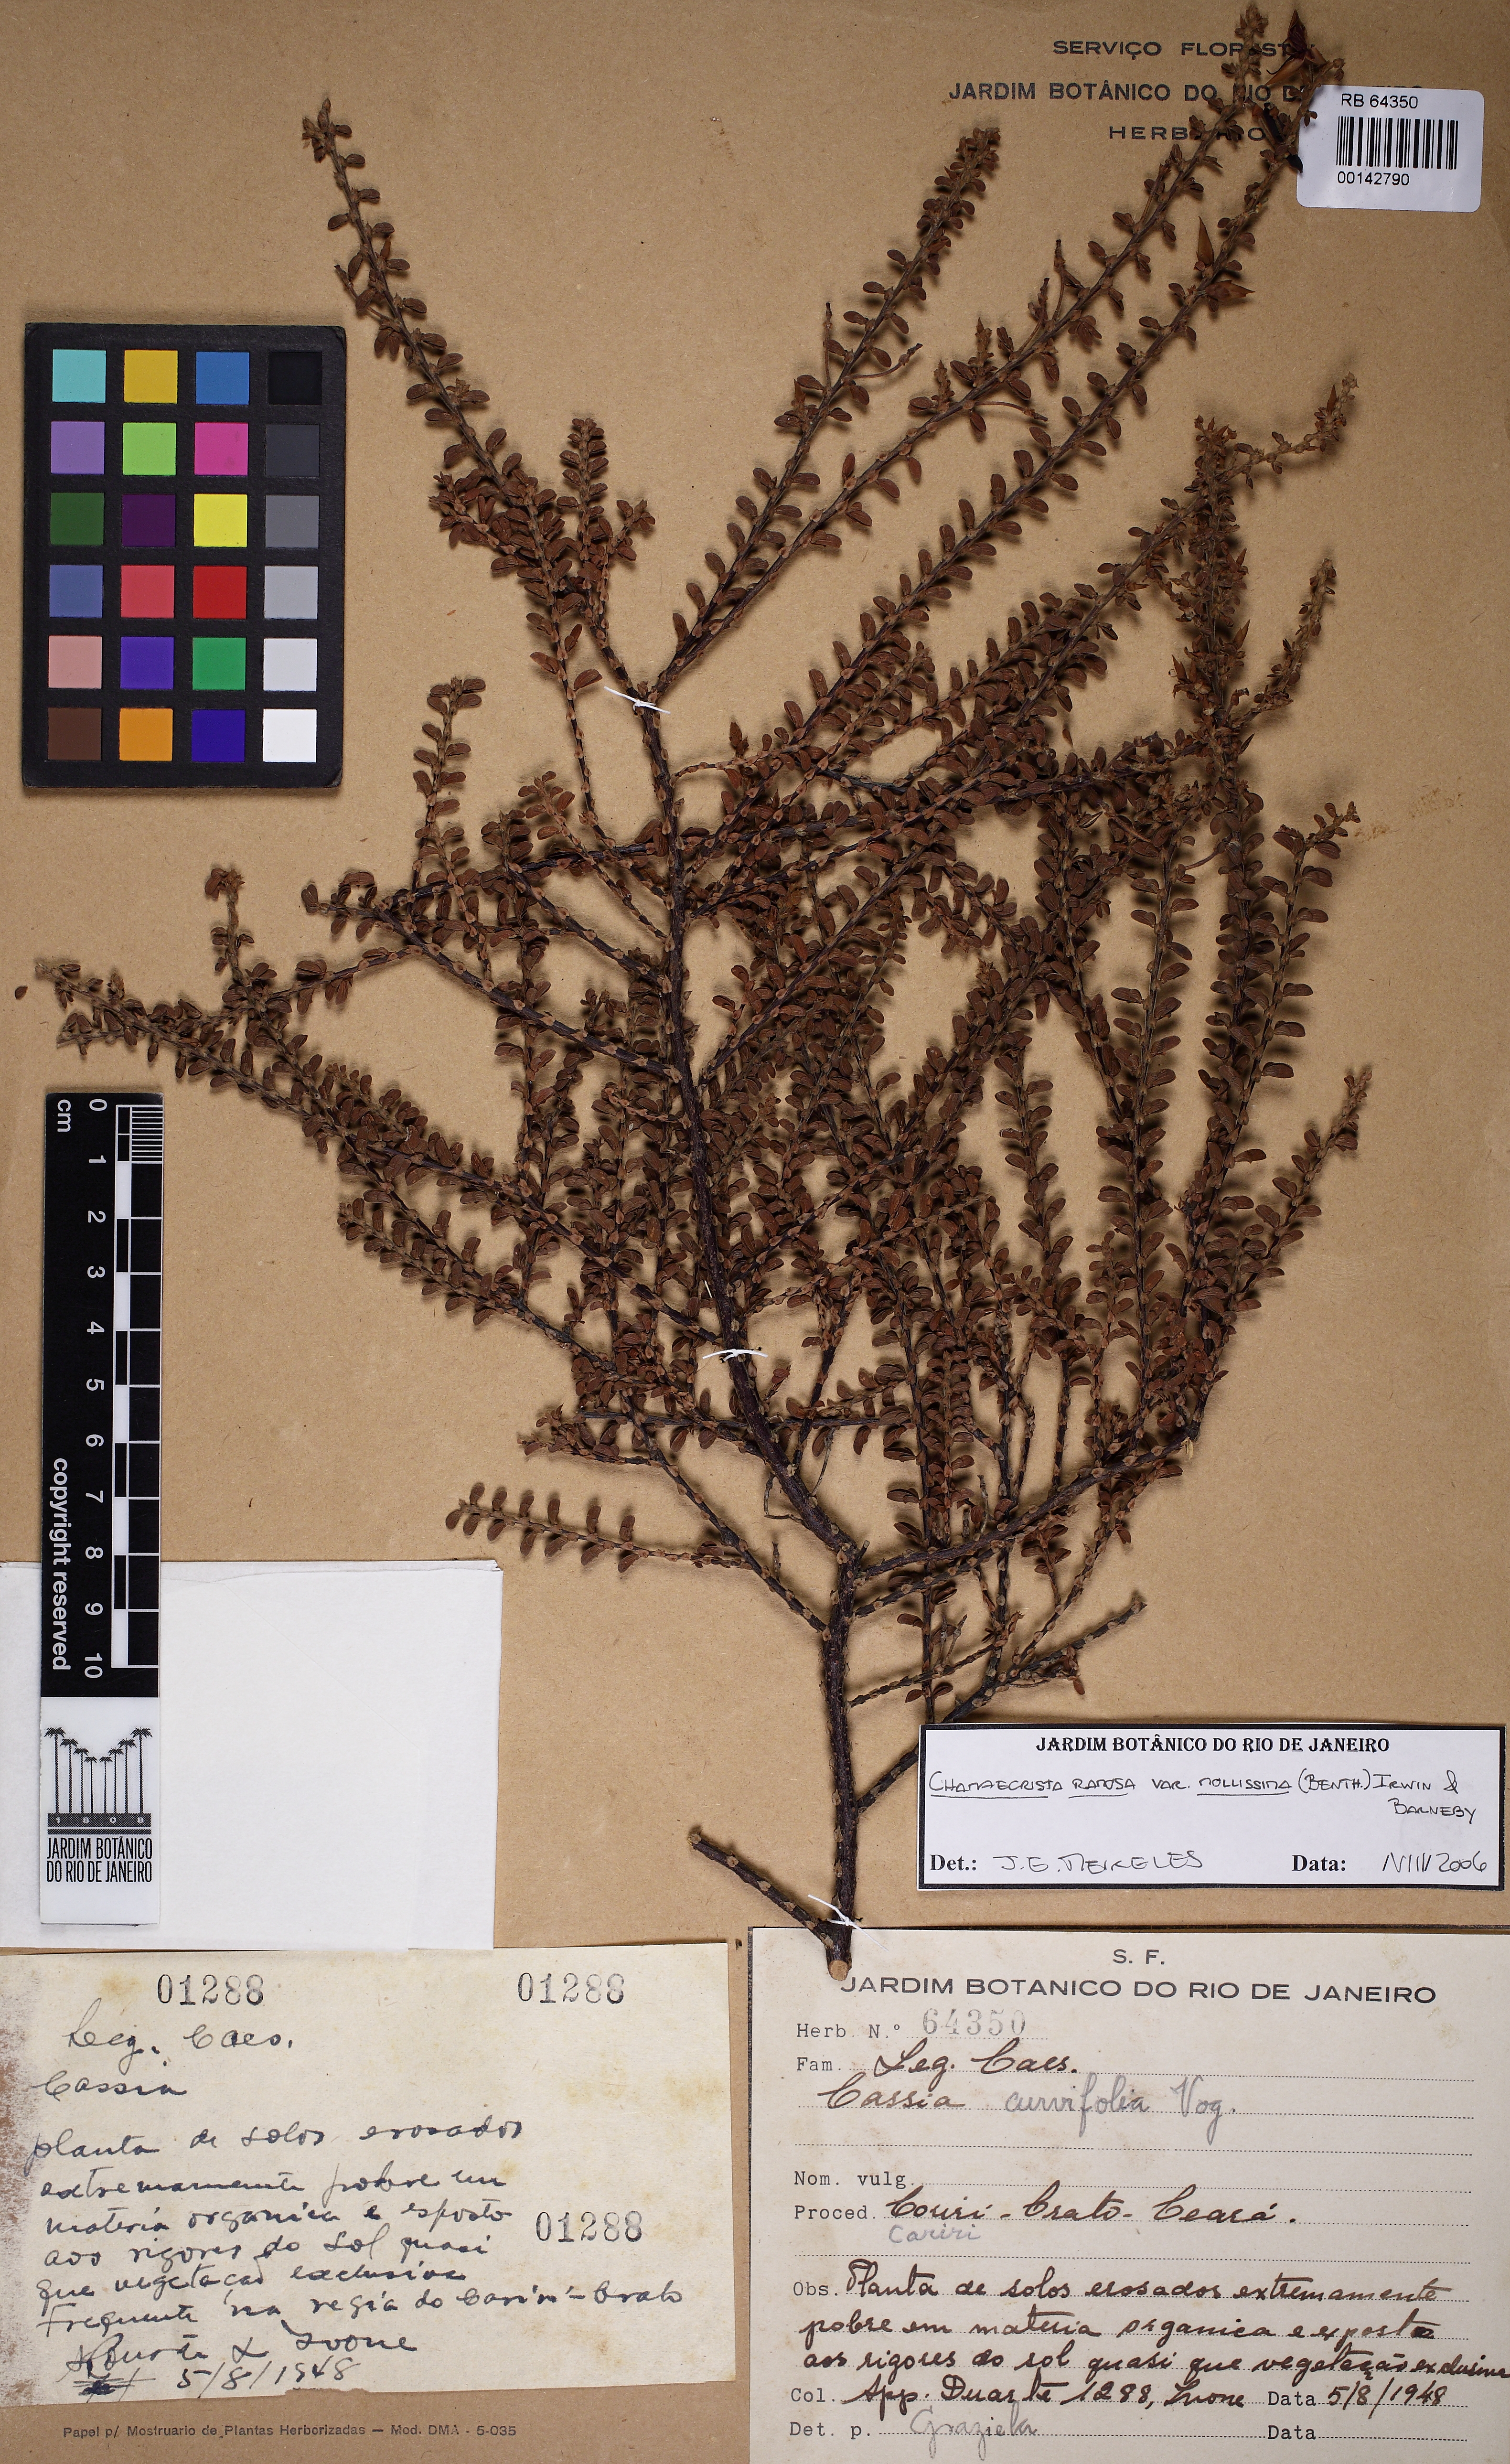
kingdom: Plantae
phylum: Tracheophyta
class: Magnoliopsida
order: Fabales
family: Fabaceae
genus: Chamaecrista
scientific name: Chamaecrista ramosa
